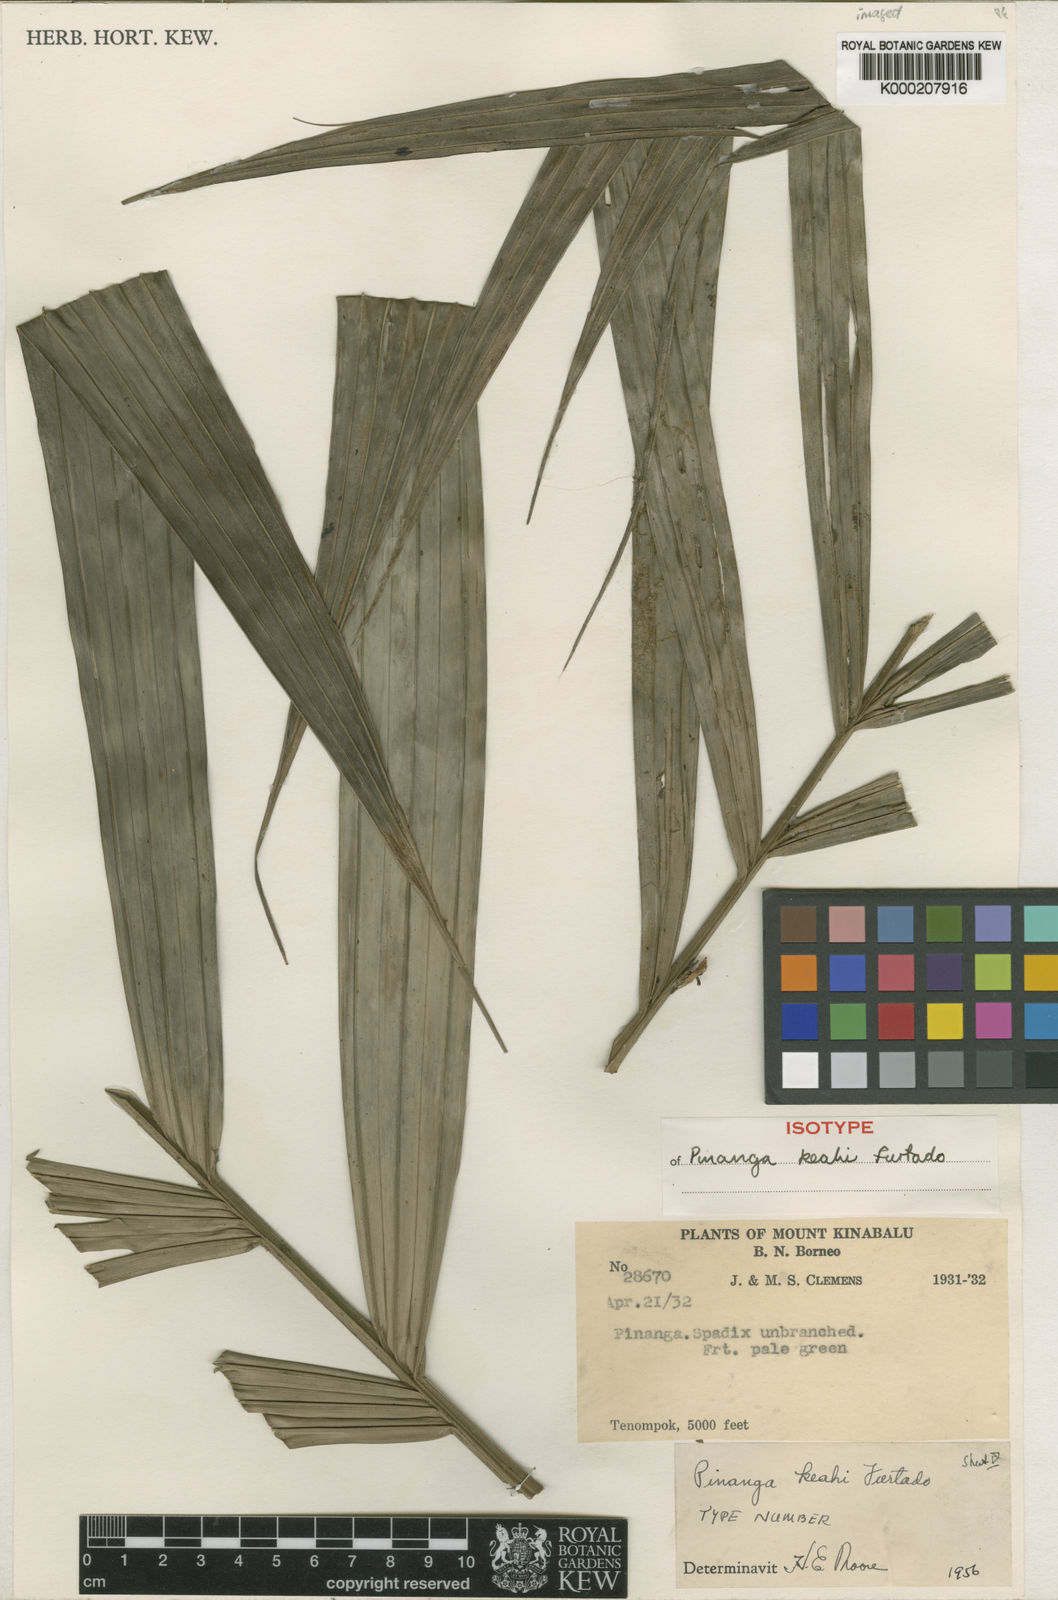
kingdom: Plantae
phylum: Tracheophyta
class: Liliopsida
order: Arecales
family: Arecaceae
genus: Pinanga
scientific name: Pinanga keahii
